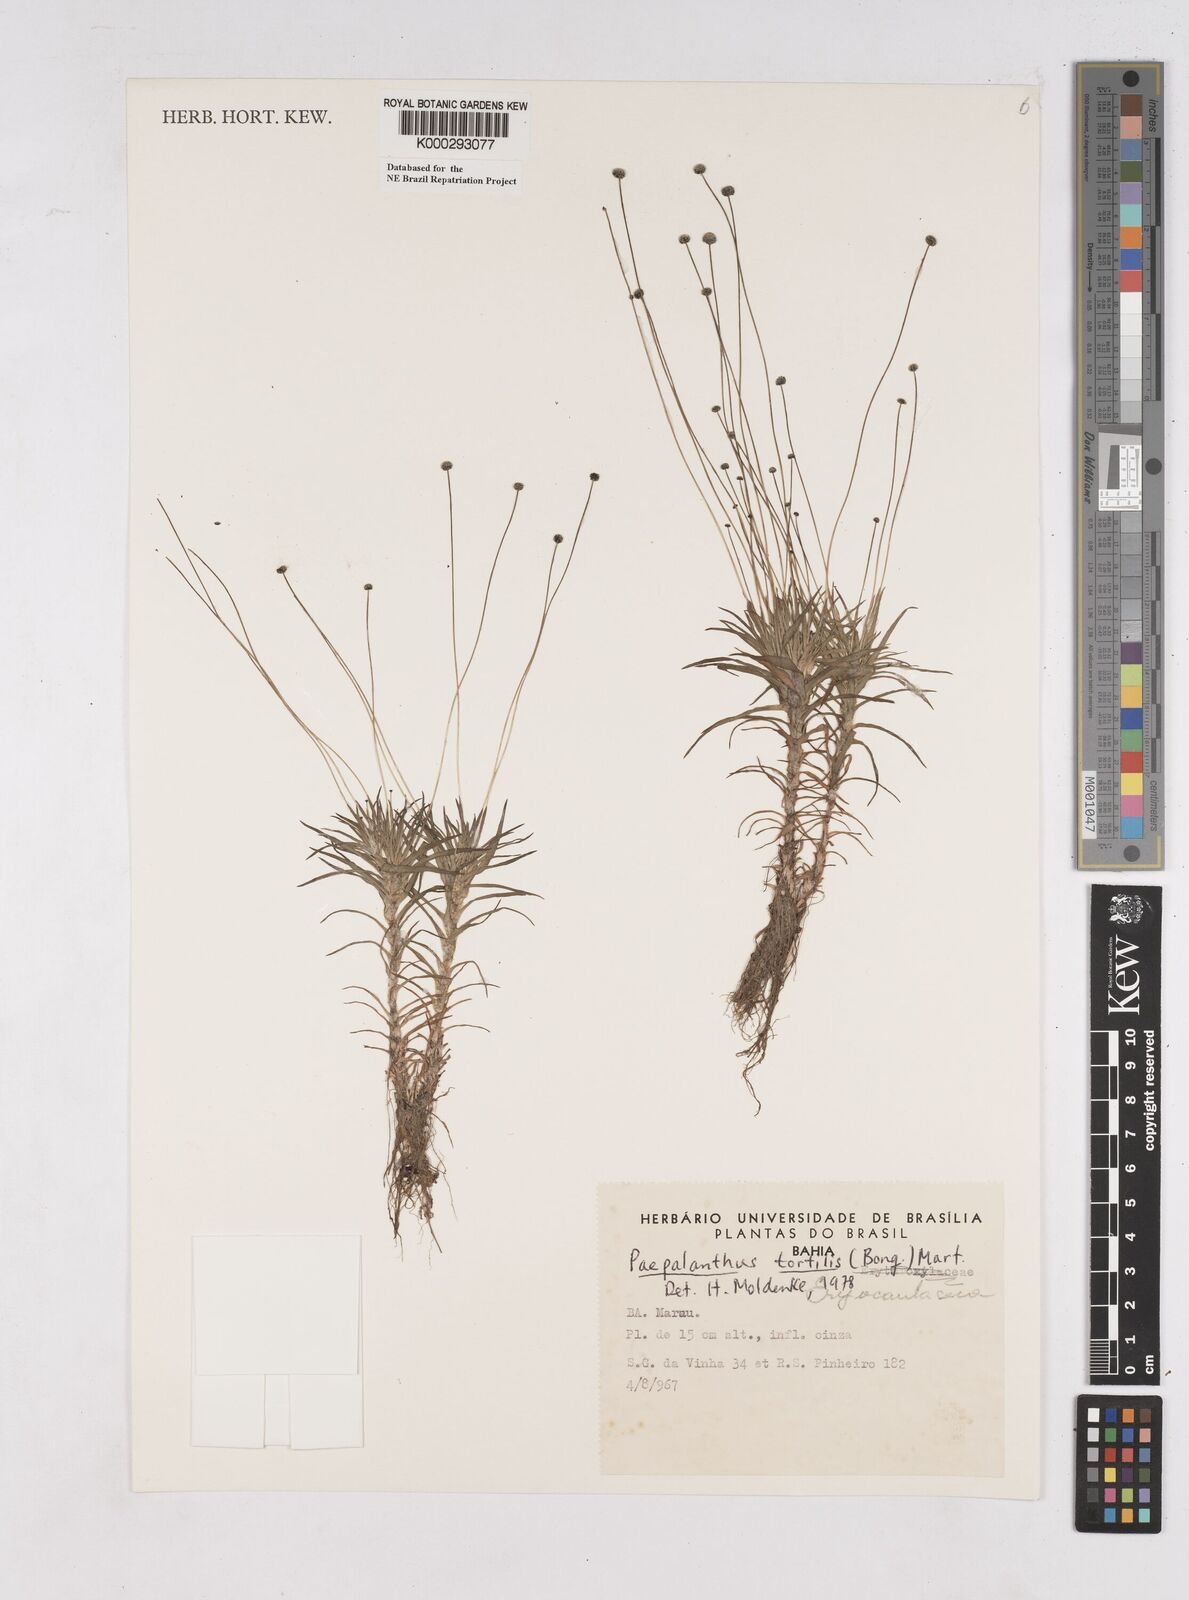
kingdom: Plantae
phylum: Tracheophyta
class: Liliopsida
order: Poales
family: Eriocaulaceae
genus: Paepalanthus
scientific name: Paepalanthus
